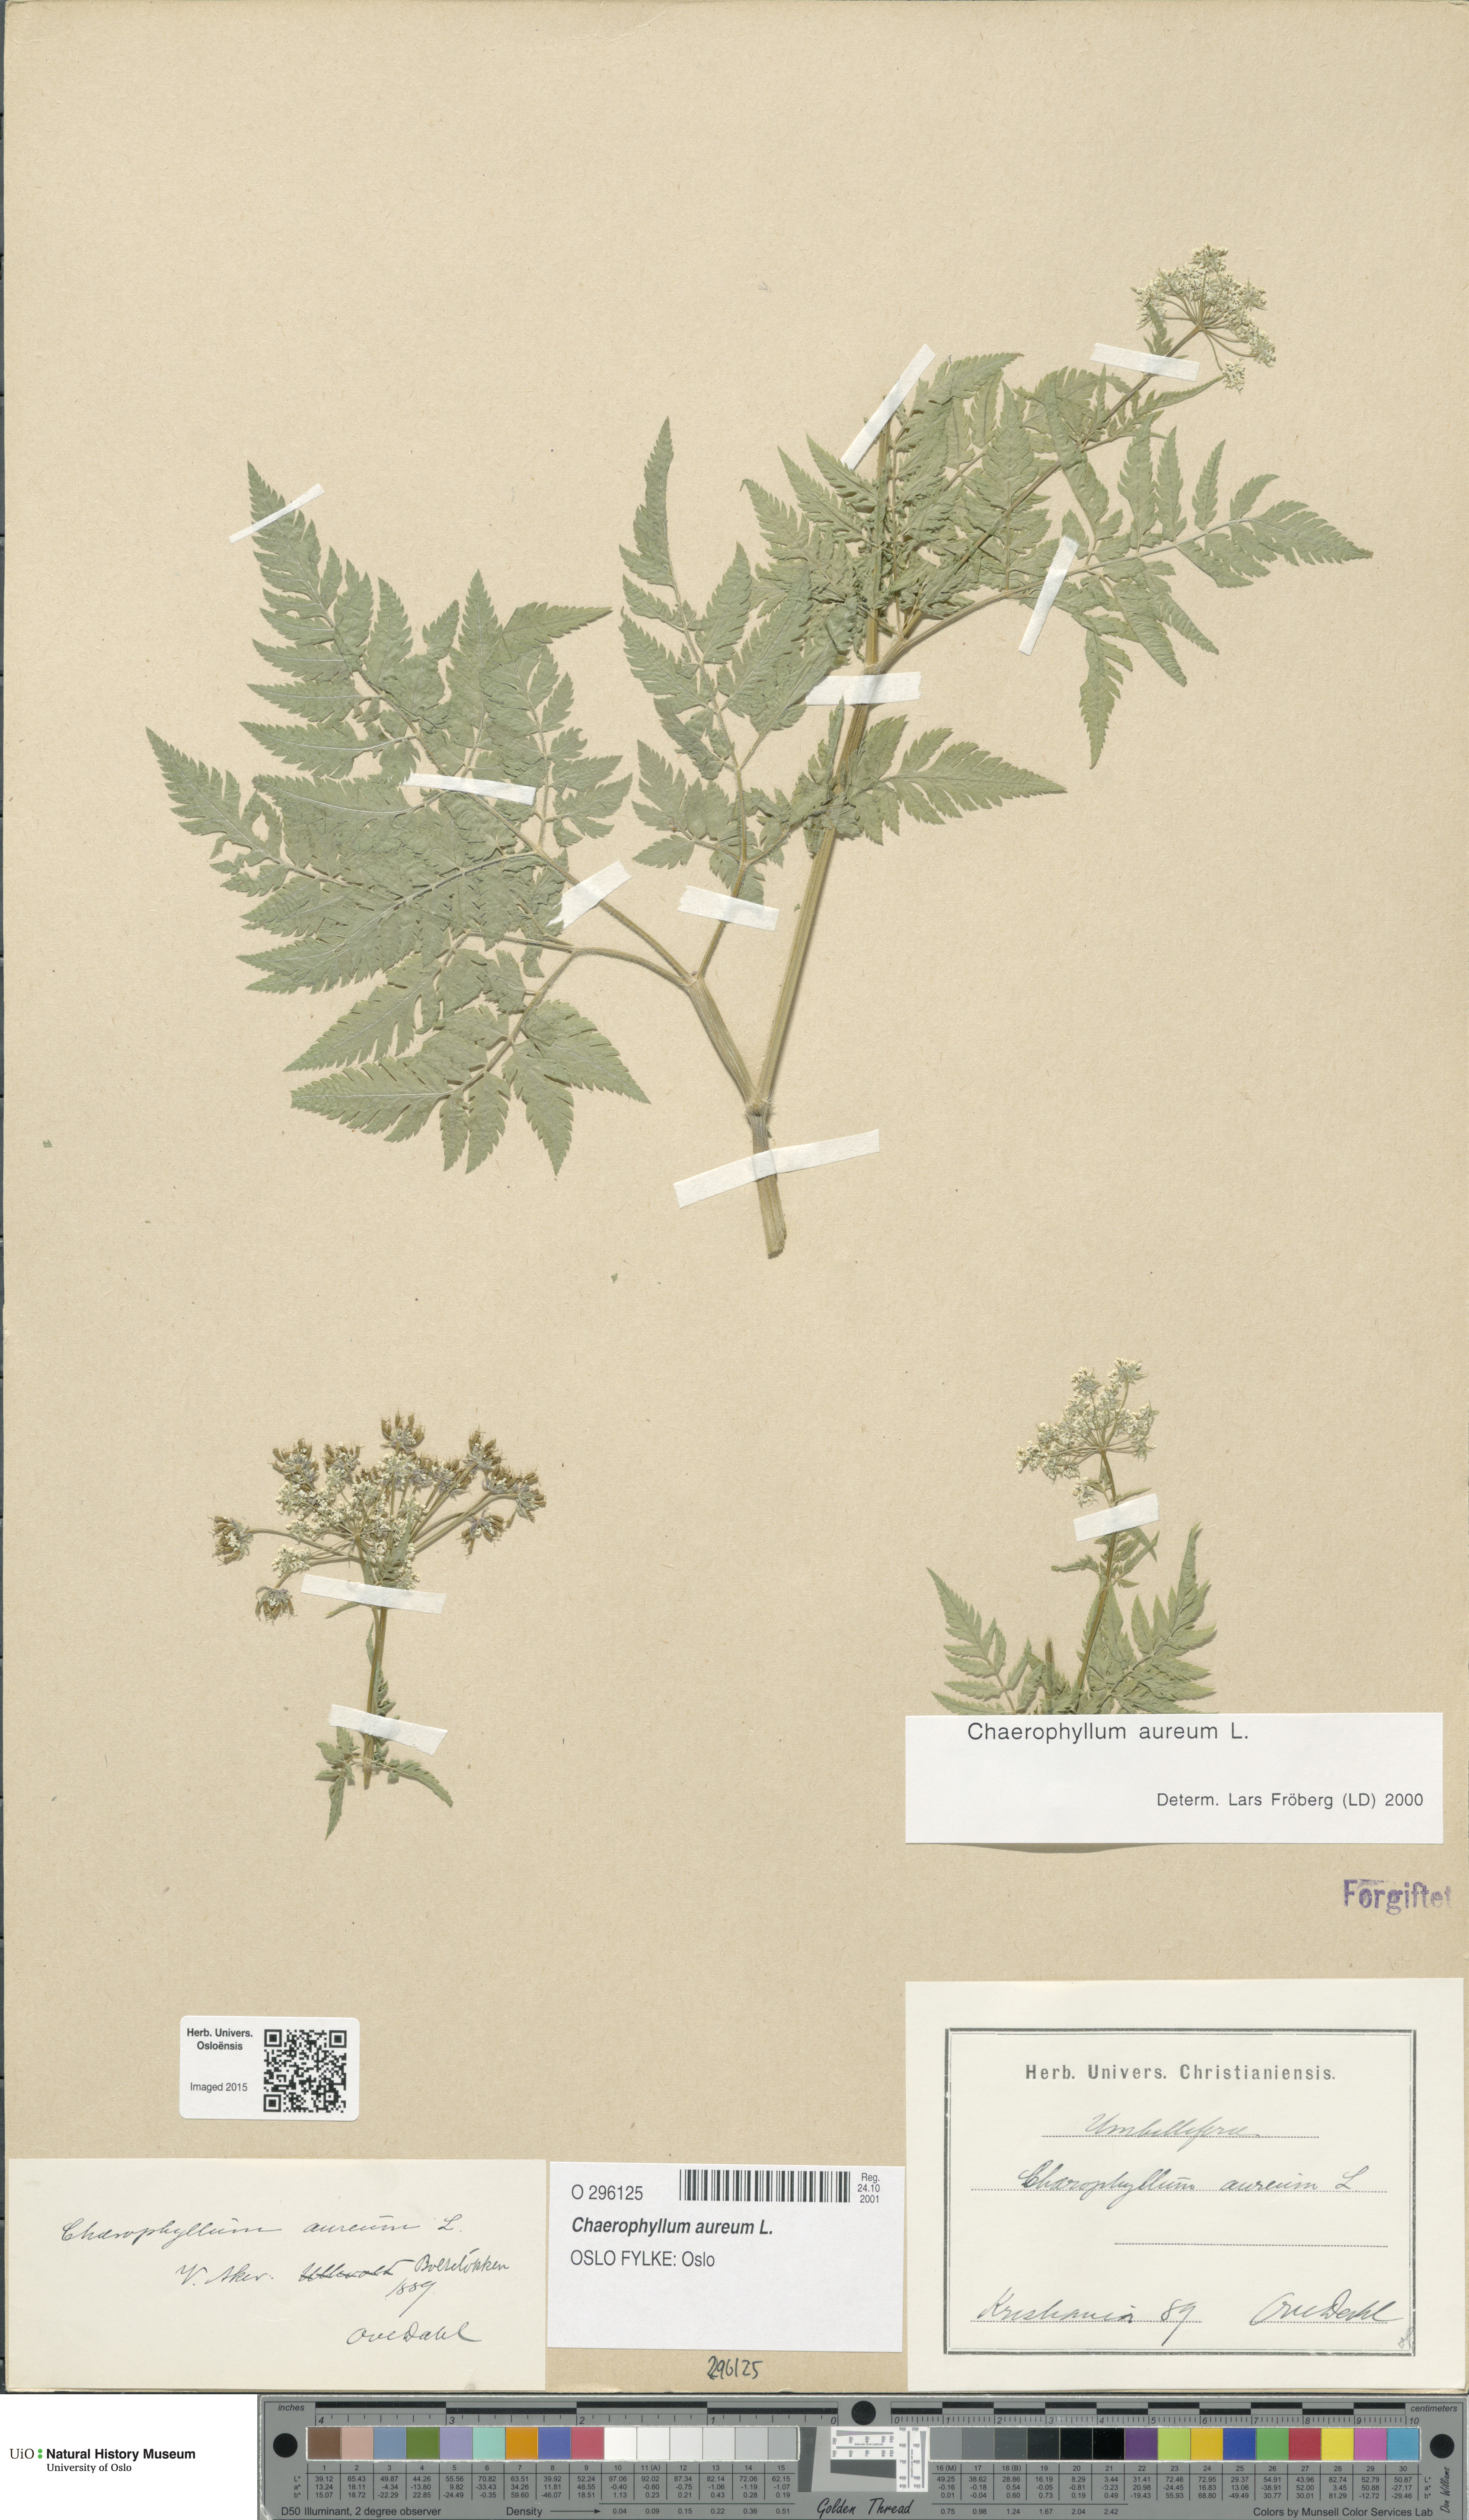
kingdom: Plantae
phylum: Tracheophyta
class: Magnoliopsida
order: Apiales
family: Apiaceae
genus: Chaerophyllum
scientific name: Chaerophyllum aureum
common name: Golden chervil
